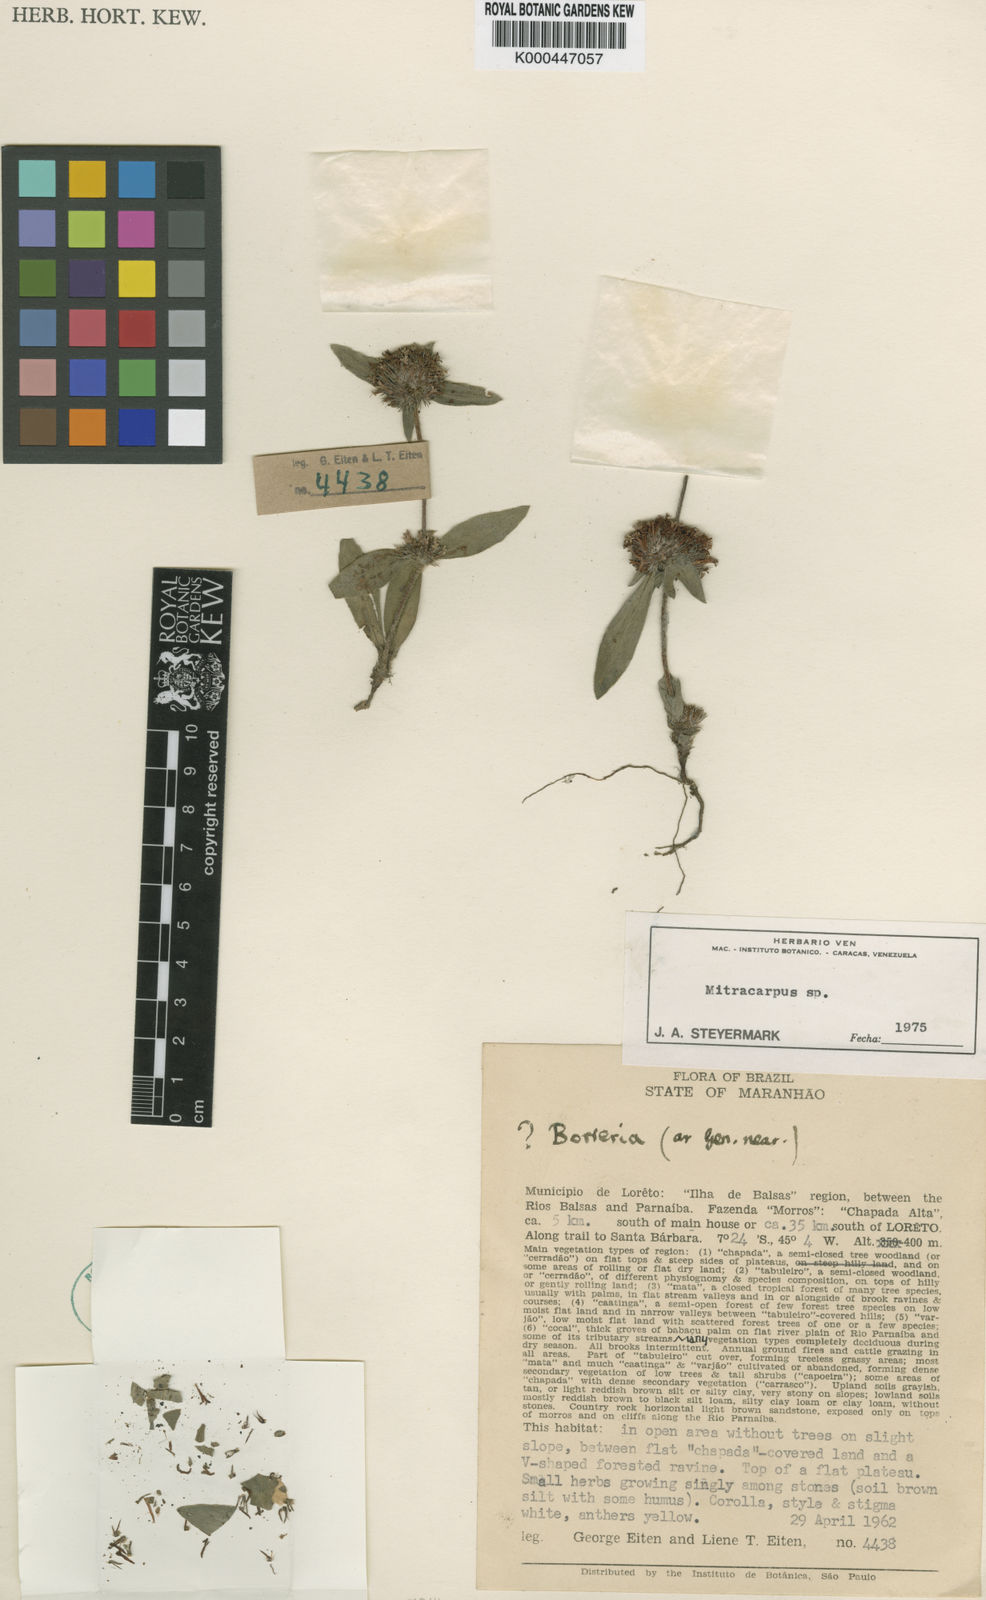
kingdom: Plantae
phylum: Tracheophyta
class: Magnoliopsida
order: Gentianales
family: Rubiaceae
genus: Mitracarpus
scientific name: Mitracarpus
